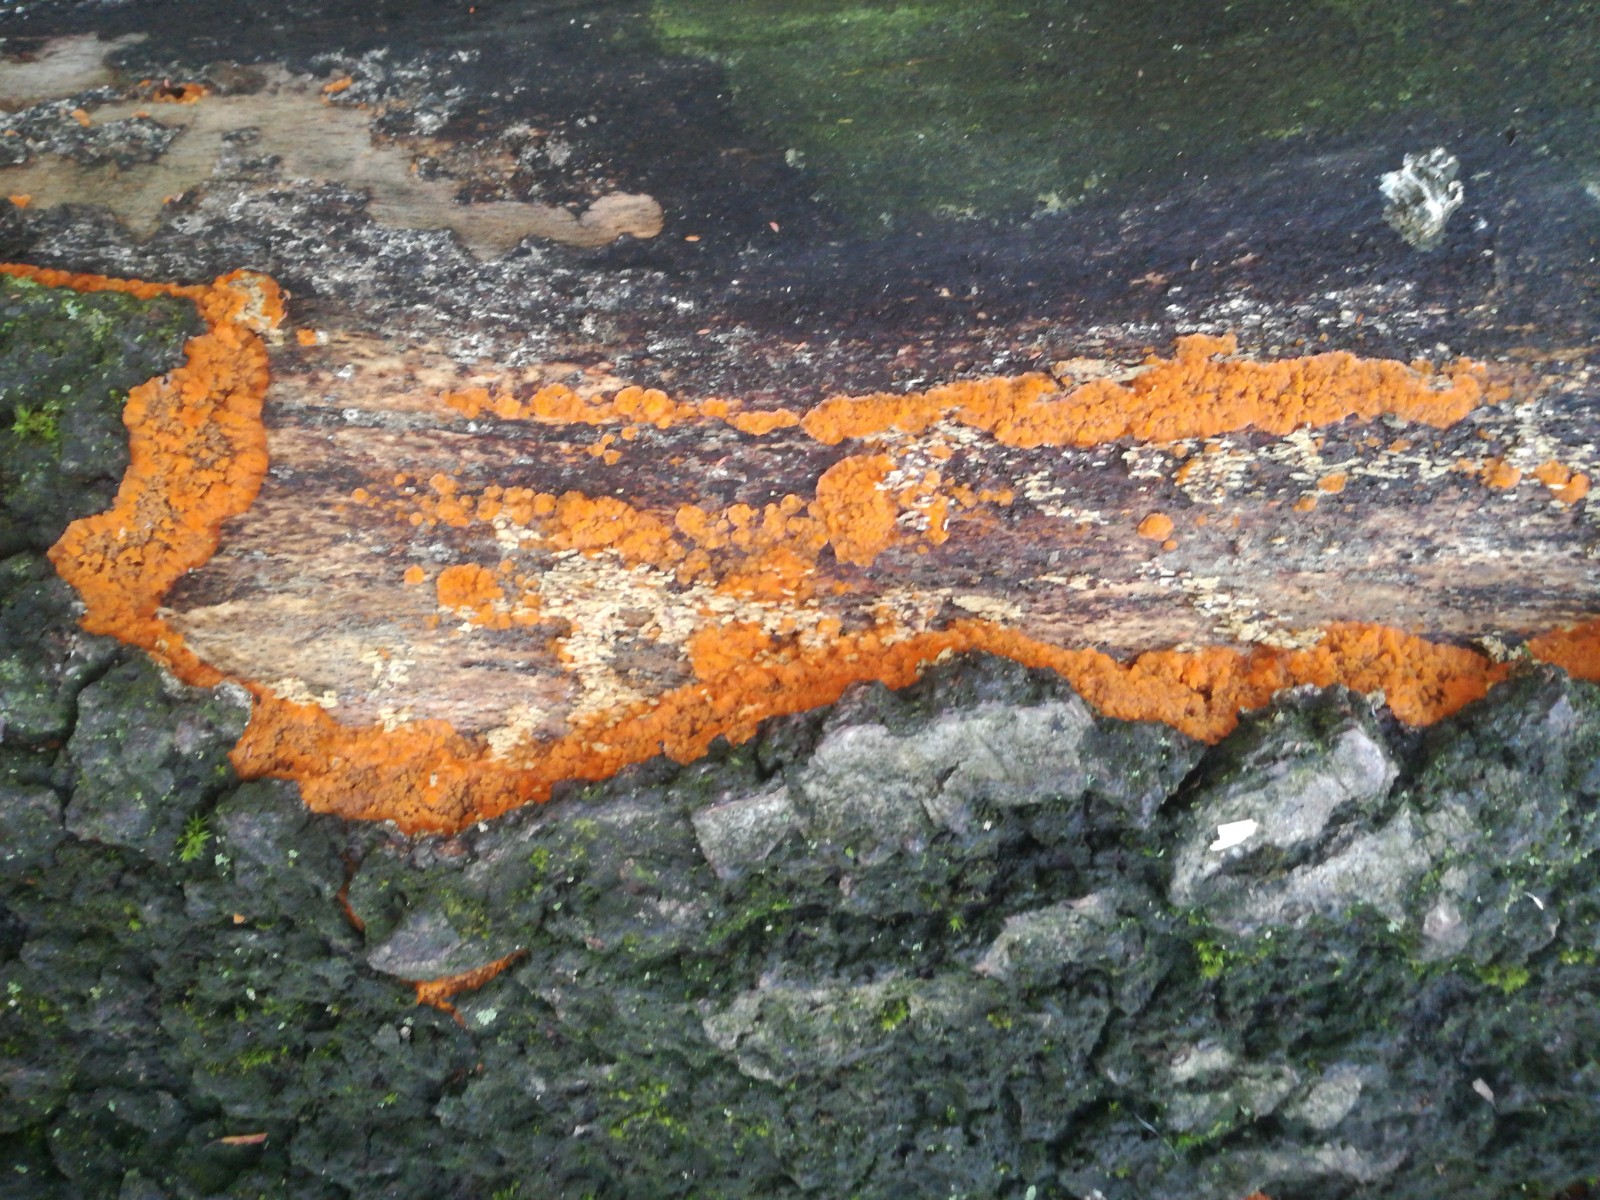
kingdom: Fungi
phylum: Basidiomycota
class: Agaricomycetes
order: Polyporales
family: Meruliaceae
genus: Phlebia
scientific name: Phlebia radiata
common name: stråle-åresvamp
